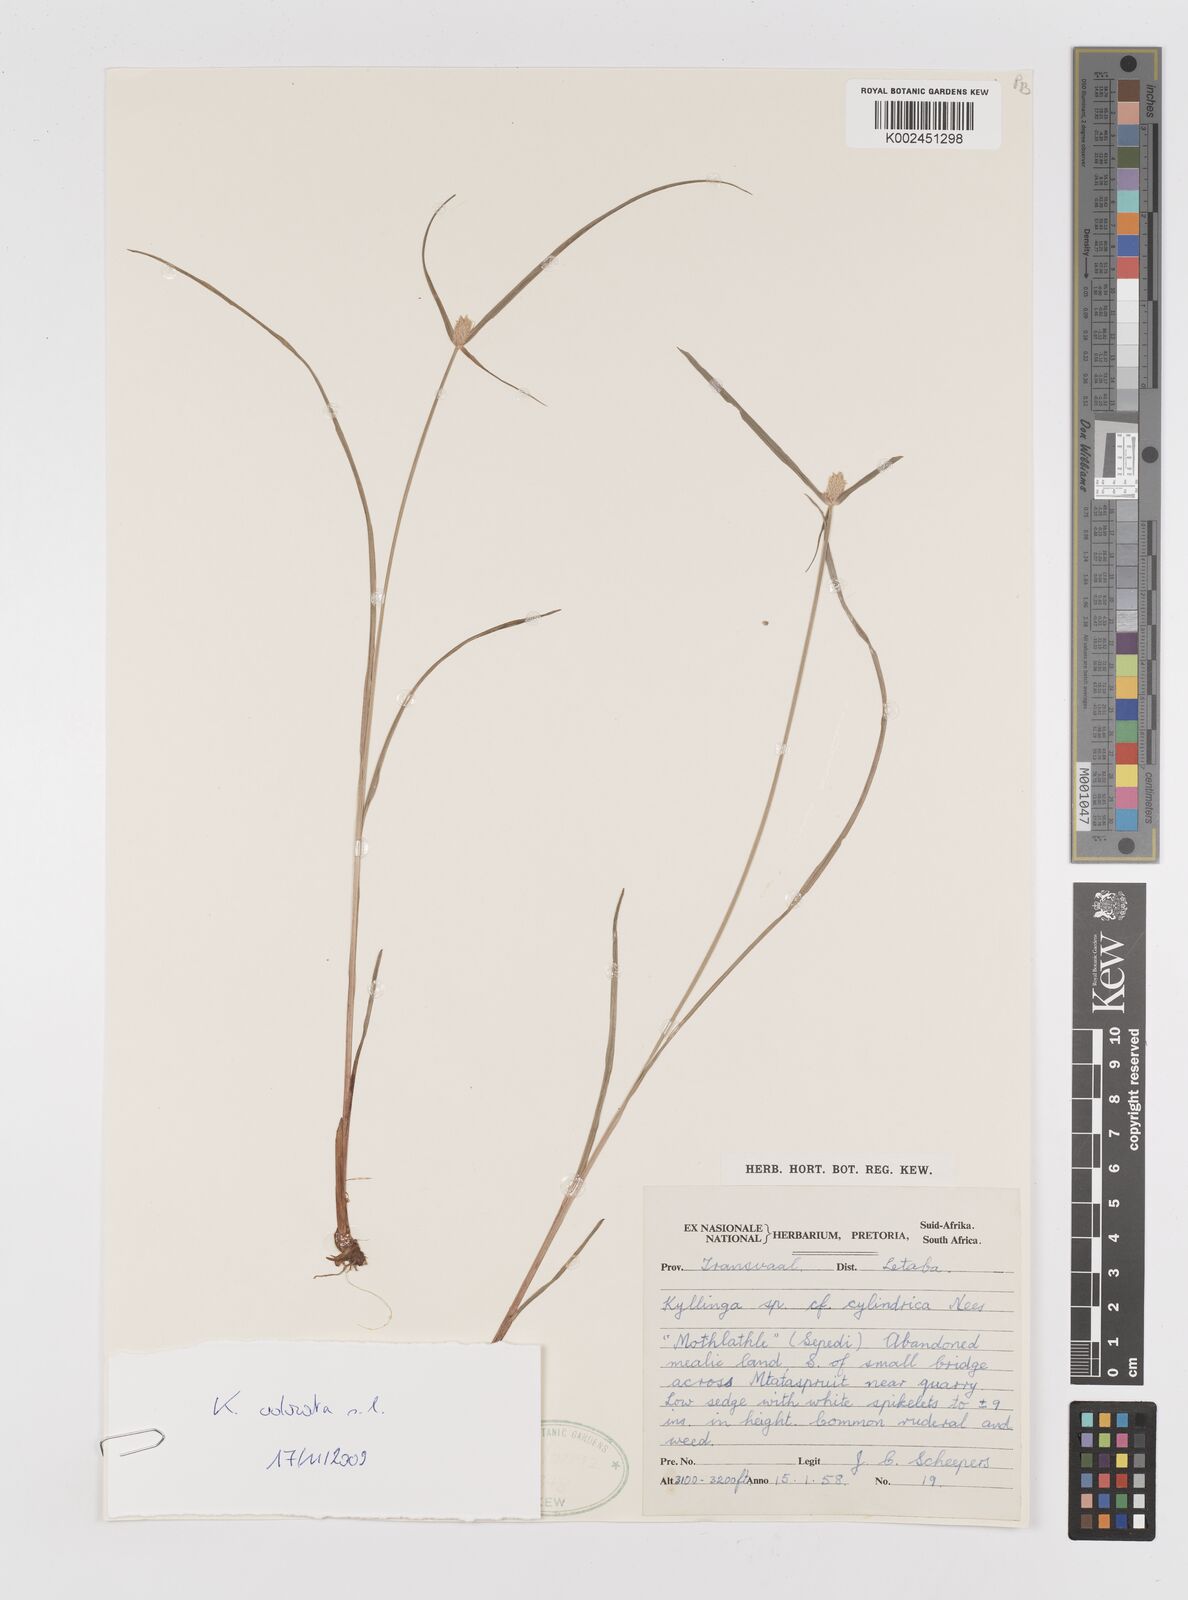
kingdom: Plantae
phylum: Tracheophyta
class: Liliopsida
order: Poales
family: Cyperaceae
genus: Cyperus
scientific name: Cyperus
